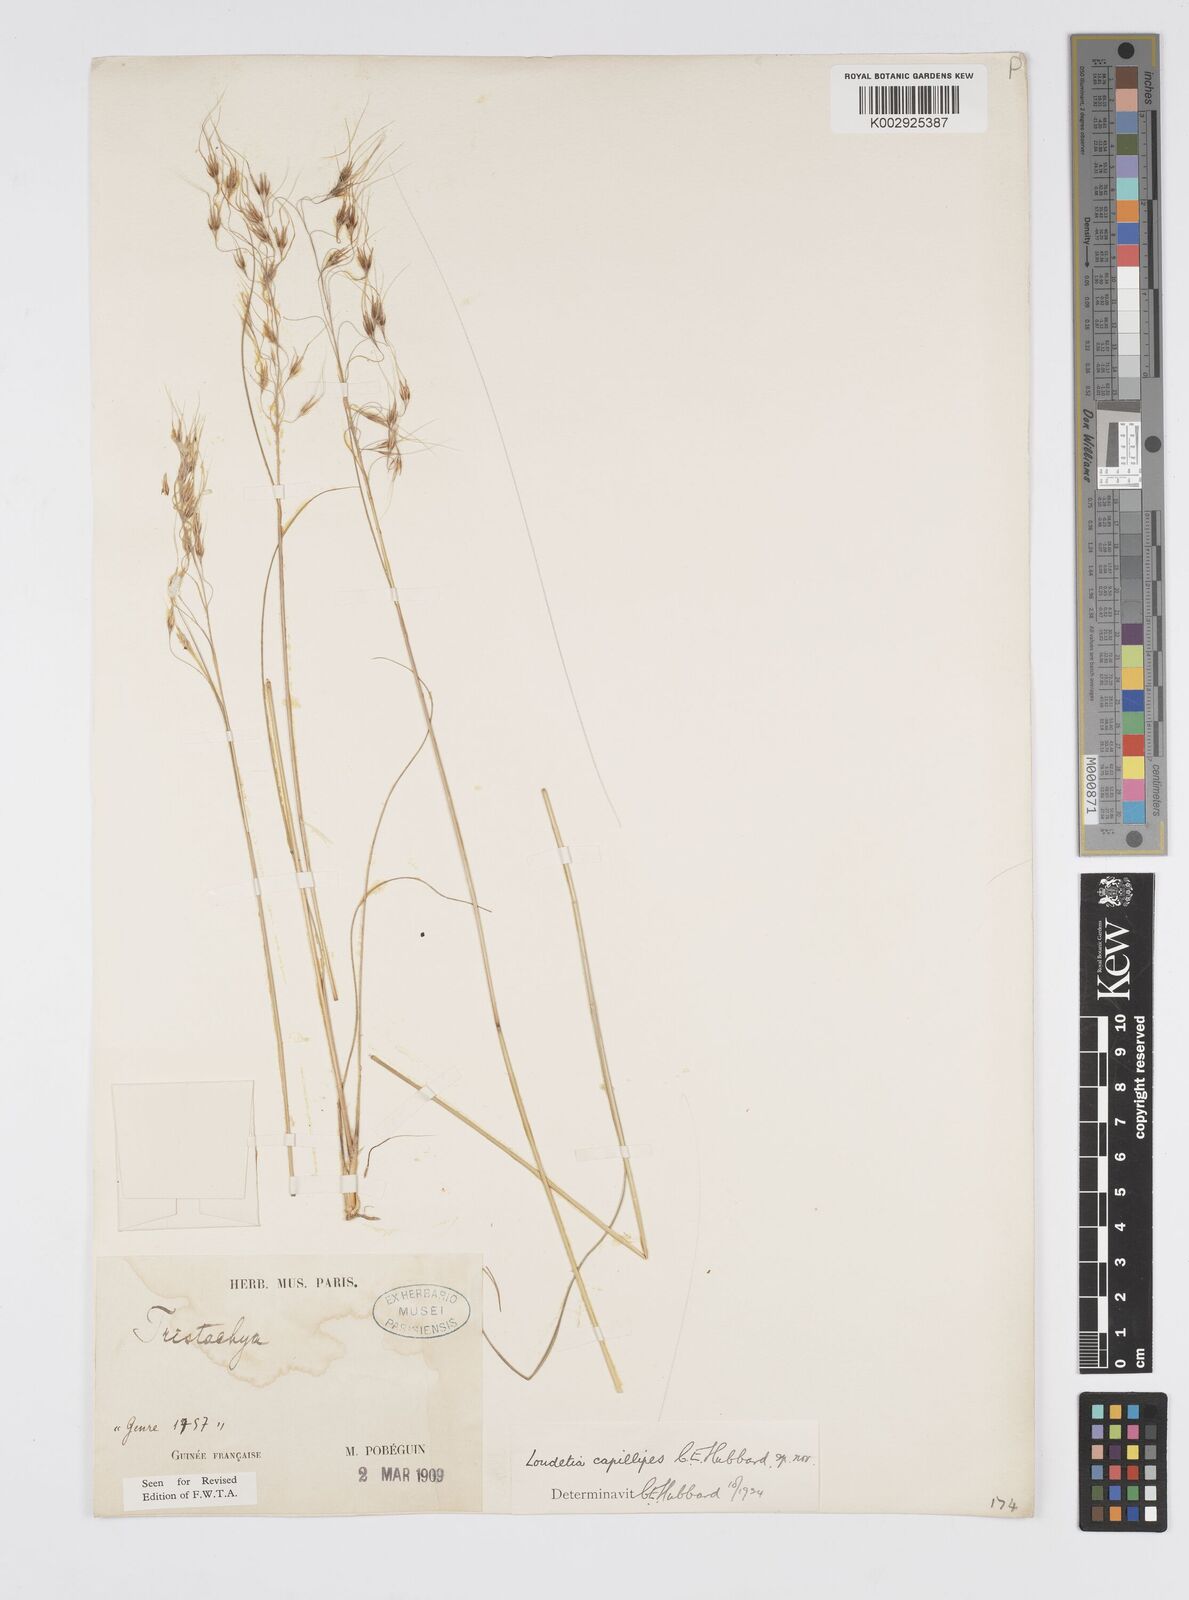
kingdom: Plantae
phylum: Tracheophyta
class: Liliopsida
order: Poales
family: Poaceae
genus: Loudetiopsis
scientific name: Loudetiopsis capillipes
